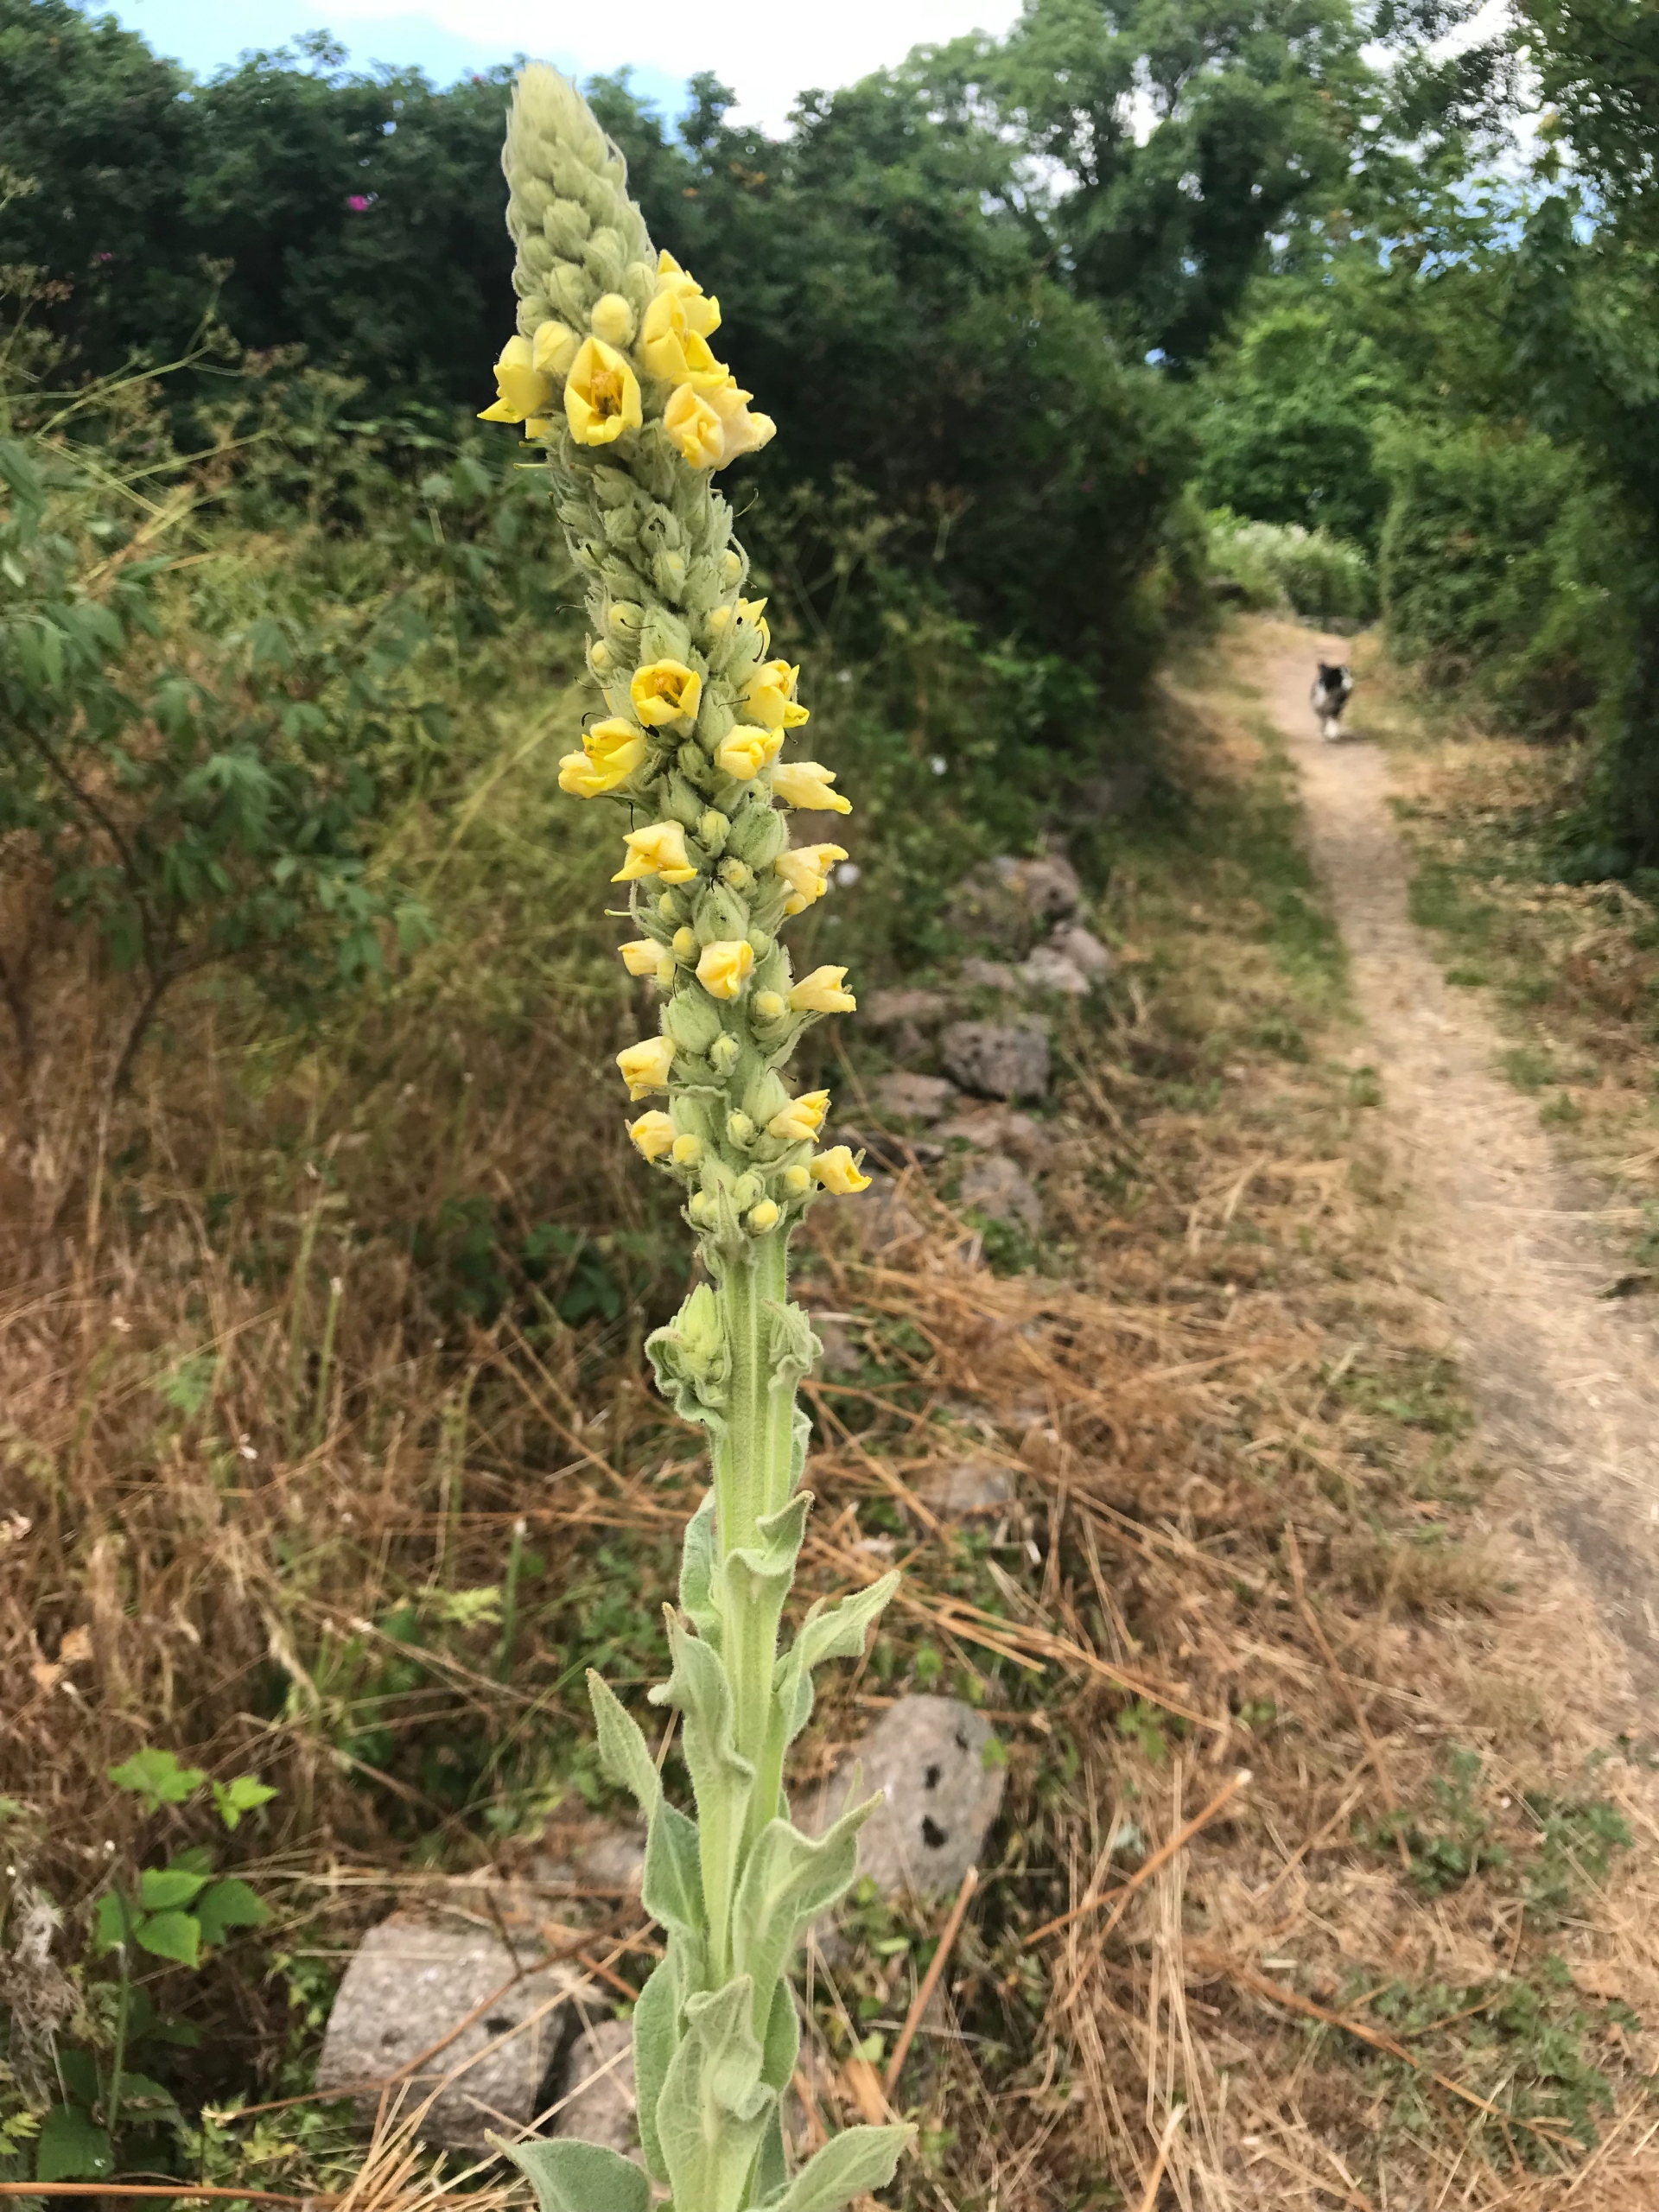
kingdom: Plantae
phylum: Tracheophyta
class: Magnoliopsida
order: Lamiales
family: Scrophulariaceae
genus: Verbascum
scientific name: Verbascum thapsus
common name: Filtbladet kongelys
